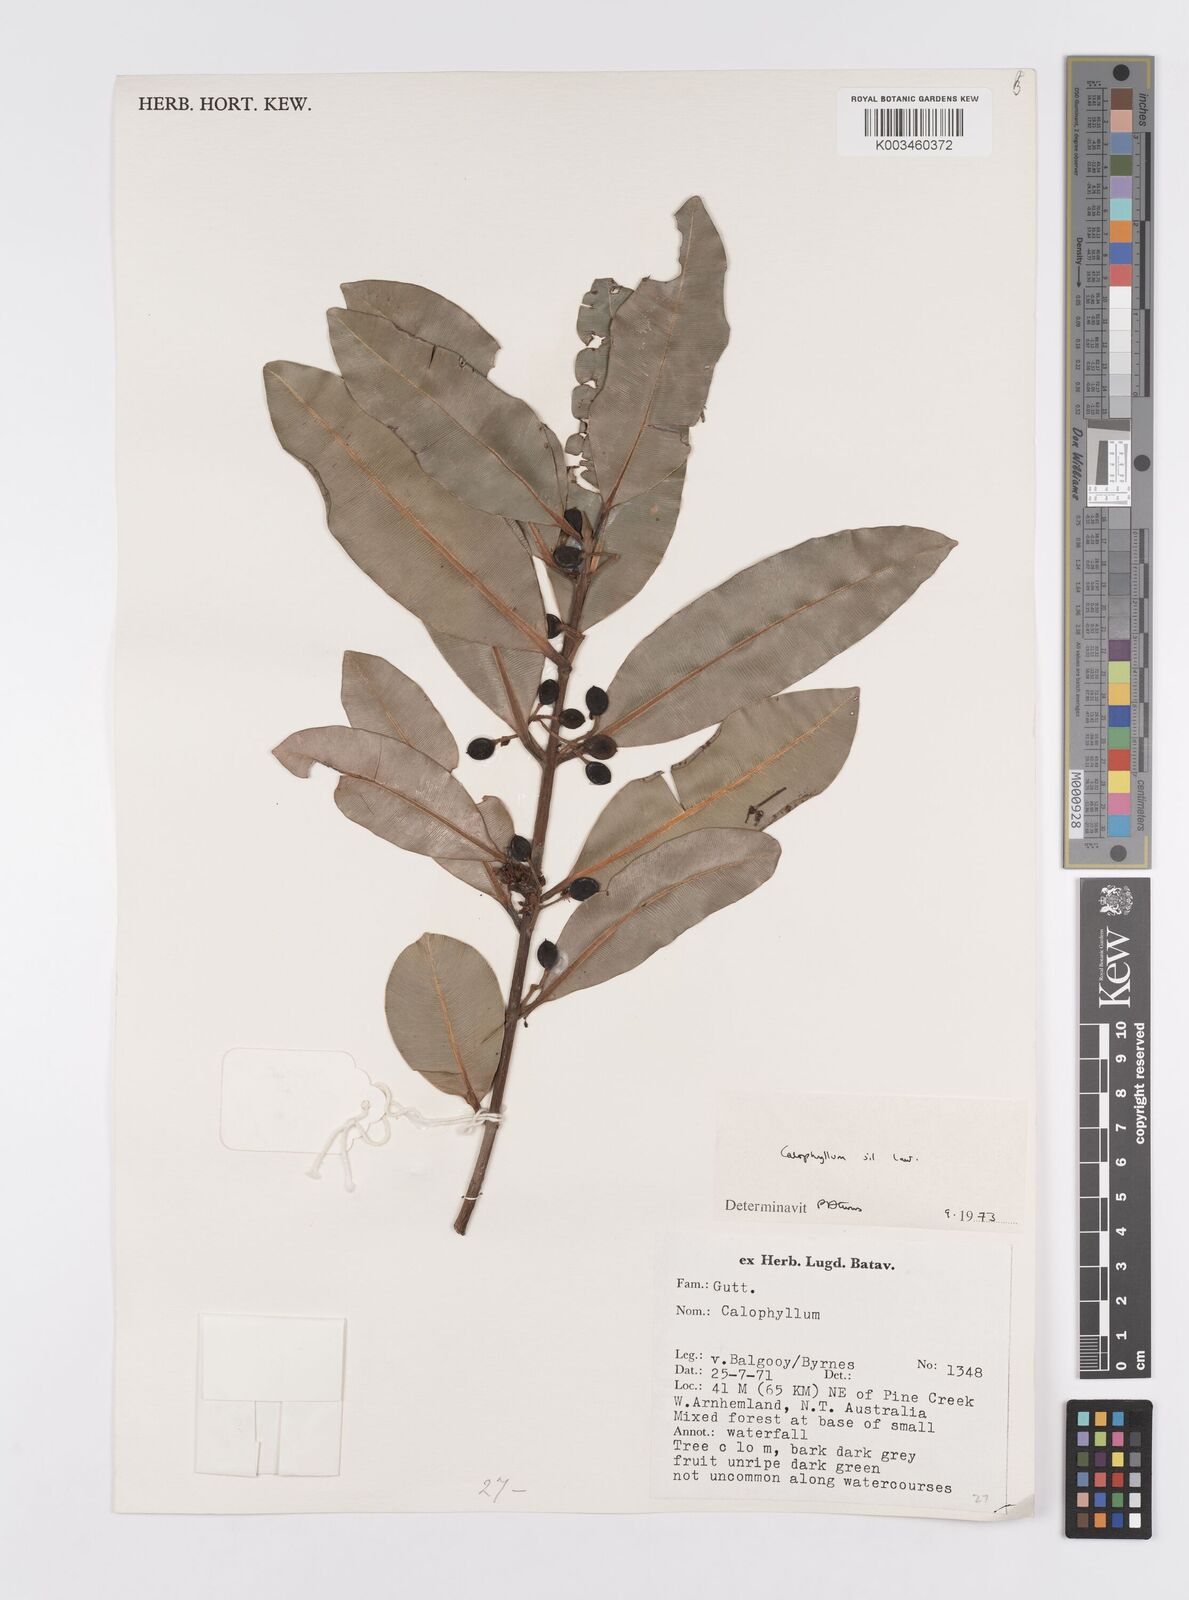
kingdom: Plantae
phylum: Tracheophyta
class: Magnoliopsida
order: Malpighiales
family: Calophyllaceae
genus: Calophyllum
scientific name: Calophyllum sil
